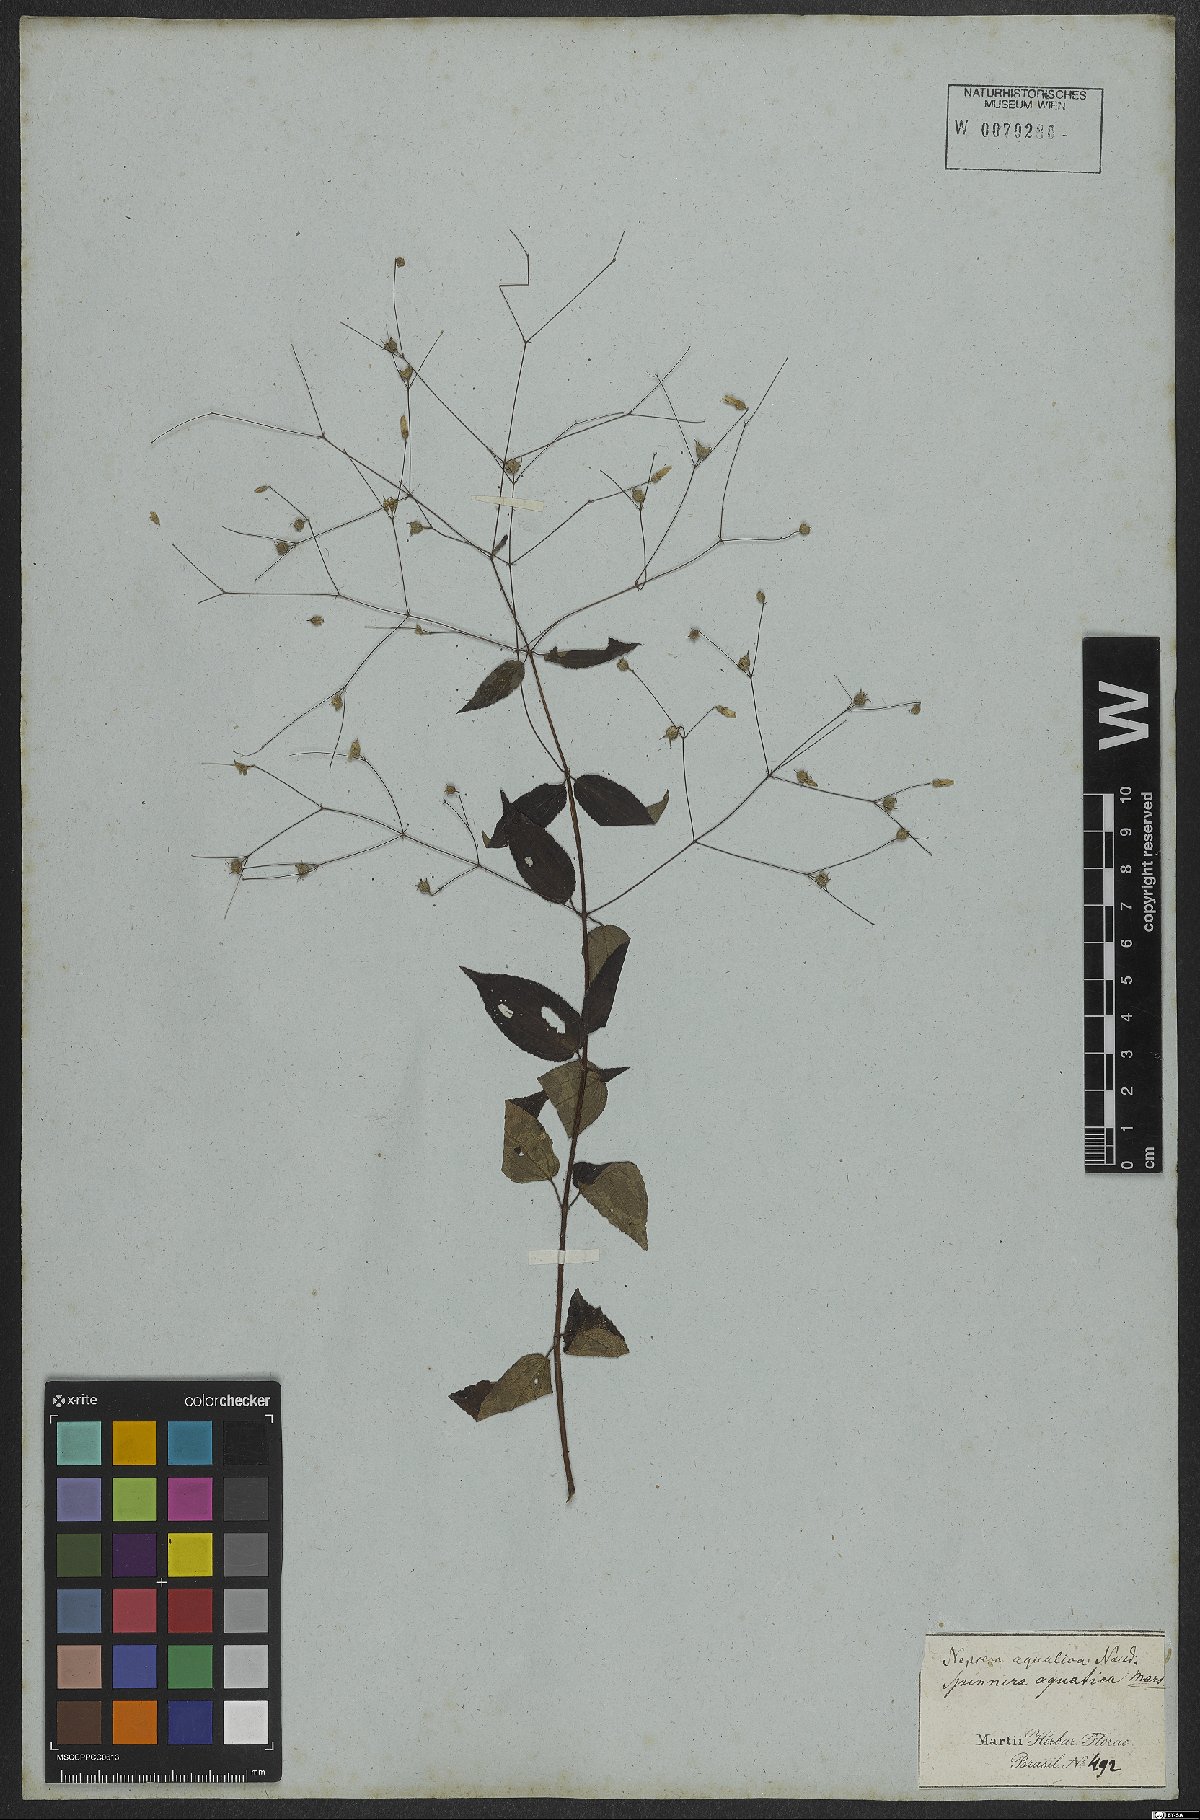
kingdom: Plantae
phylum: Tracheophyta
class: Magnoliopsida
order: Myrtales
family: Melastomataceae
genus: Nepsera
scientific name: Nepsera aquatica
